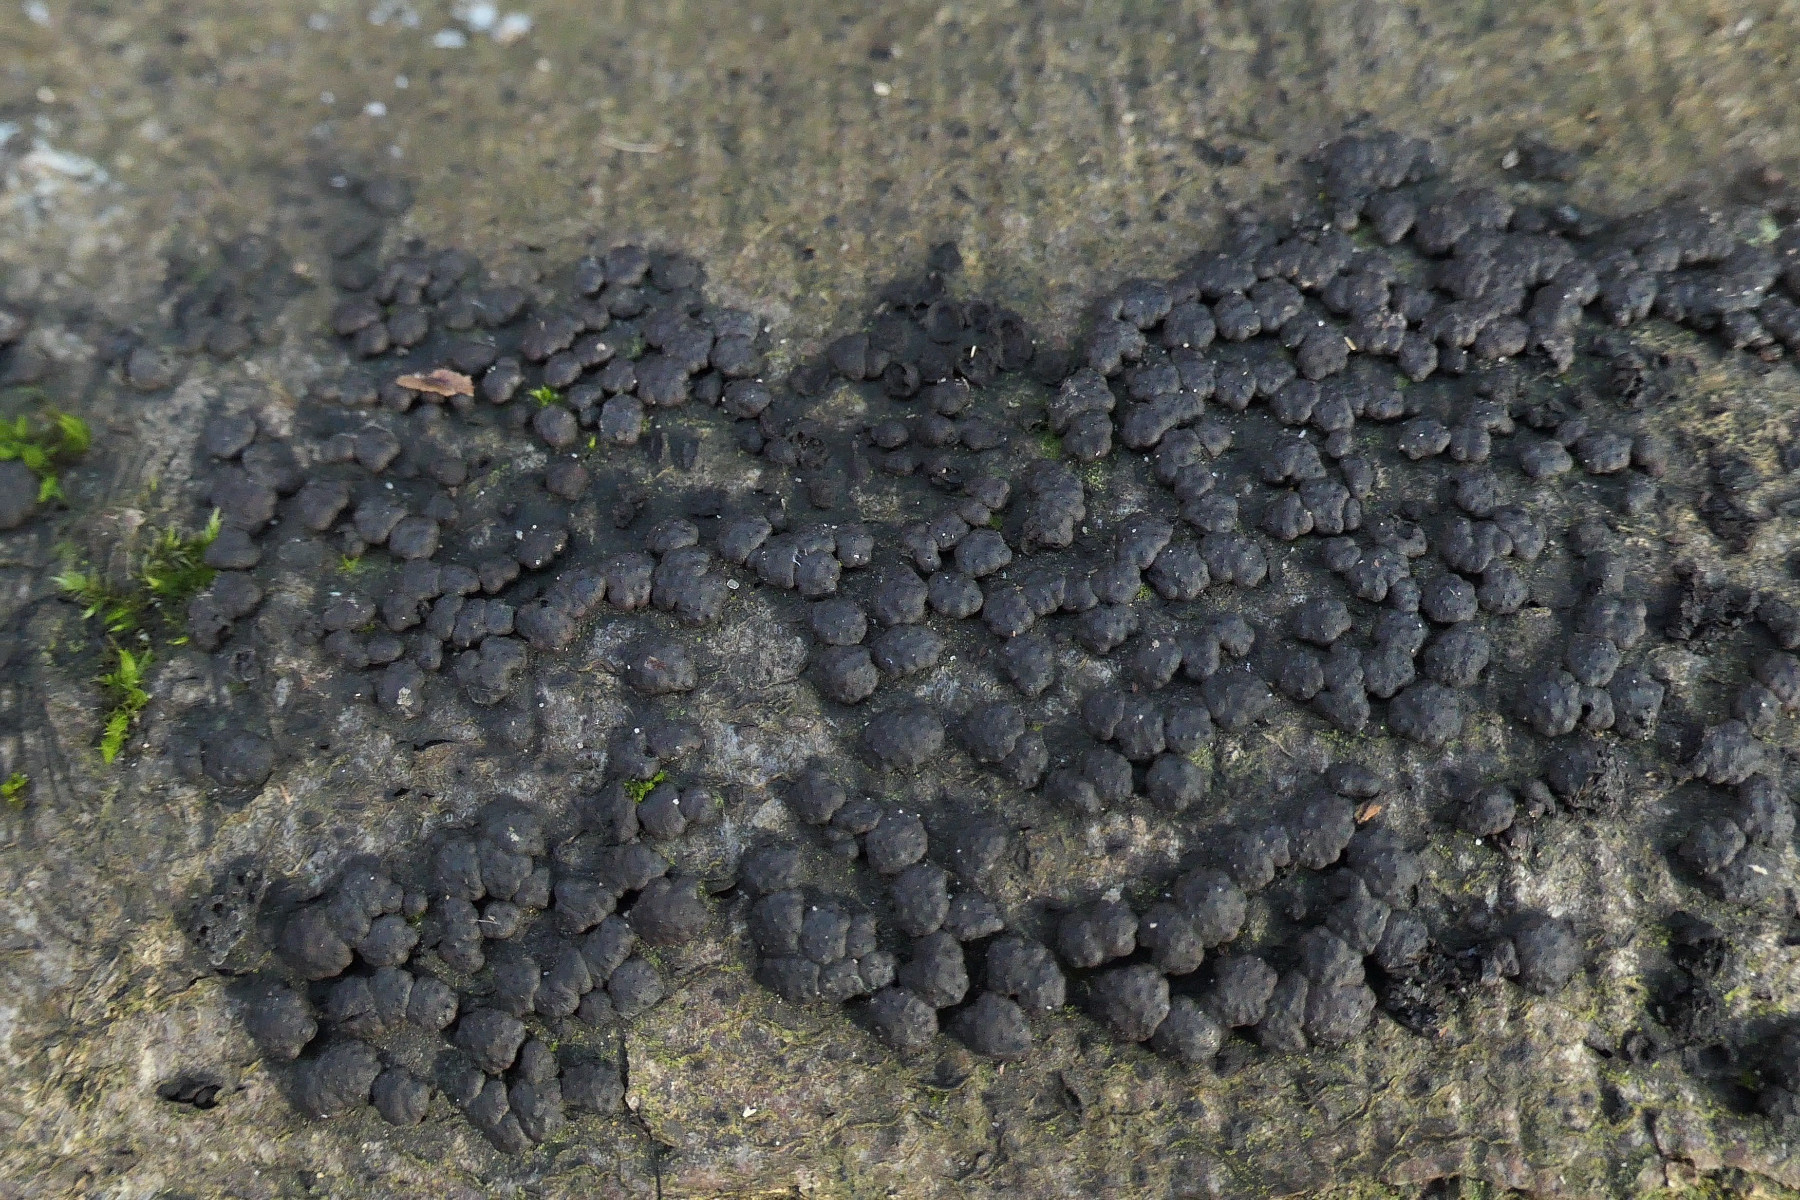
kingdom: Fungi
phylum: Ascomycota
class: Sordariomycetes
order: Xylariales
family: Hypoxylaceae
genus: Jackrogersella
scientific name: Jackrogersella cohaerens
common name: sammenflydende kulbær
